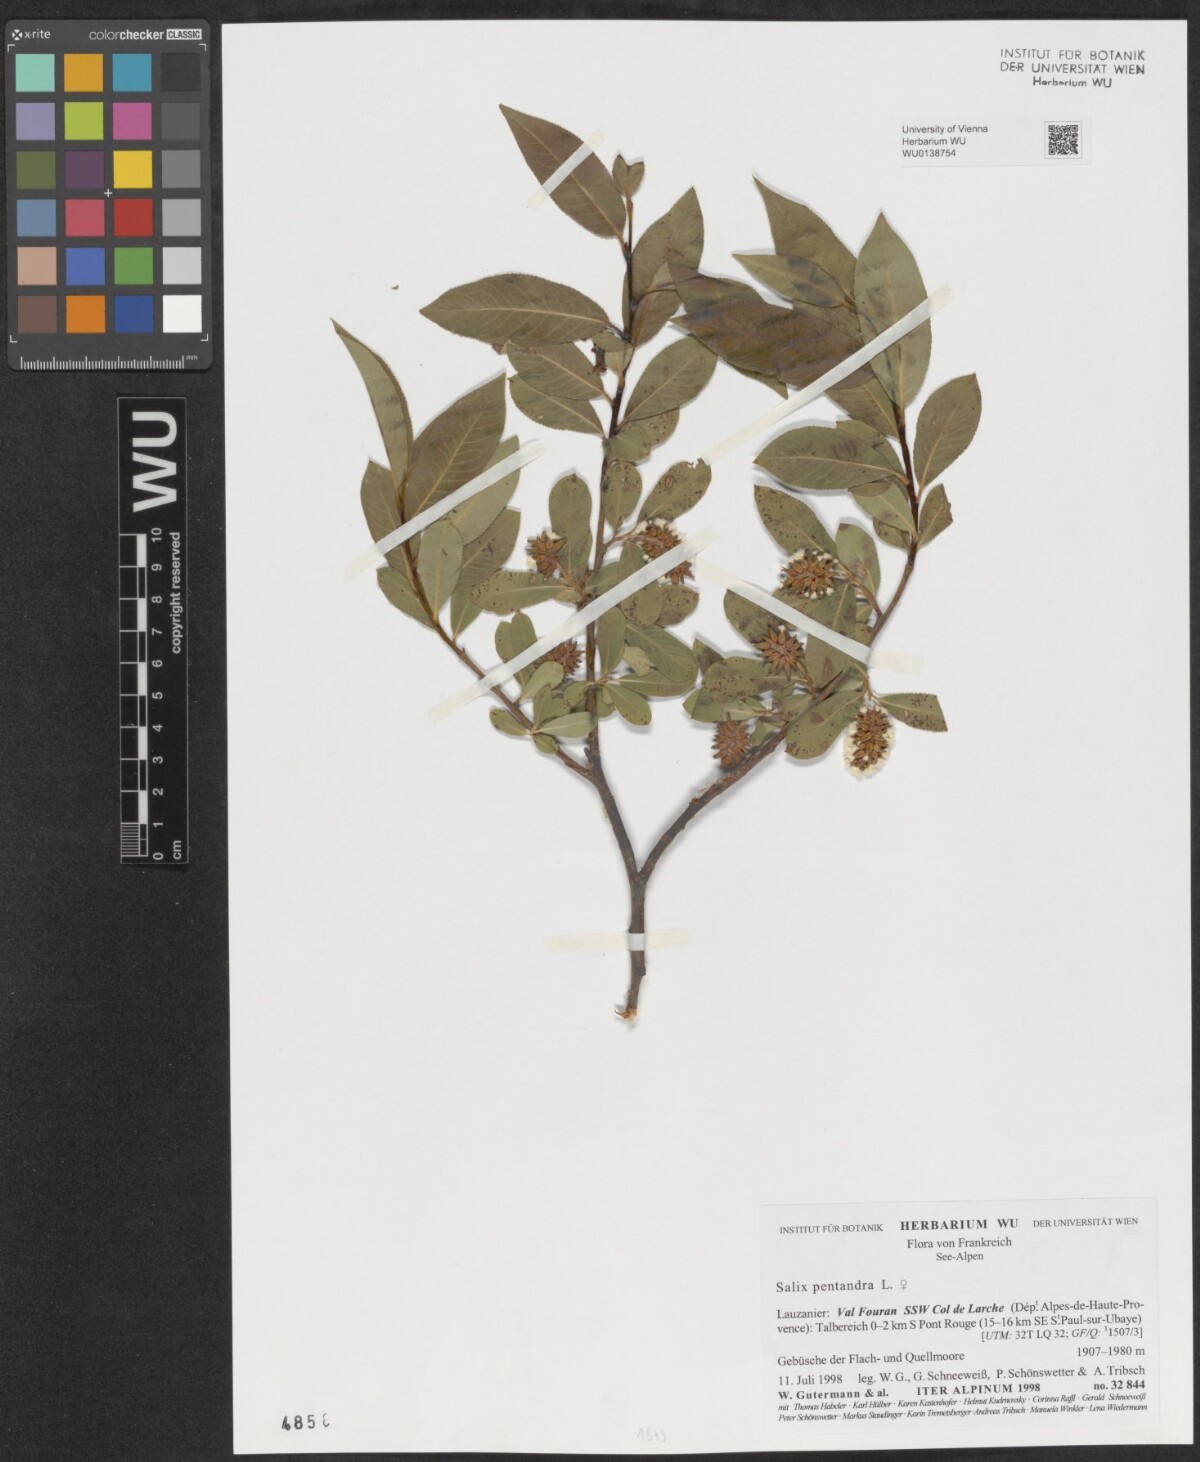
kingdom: Plantae
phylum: Tracheophyta
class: Magnoliopsida
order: Malpighiales
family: Salicaceae
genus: Salix
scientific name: Salix pentandra
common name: Bay willow
